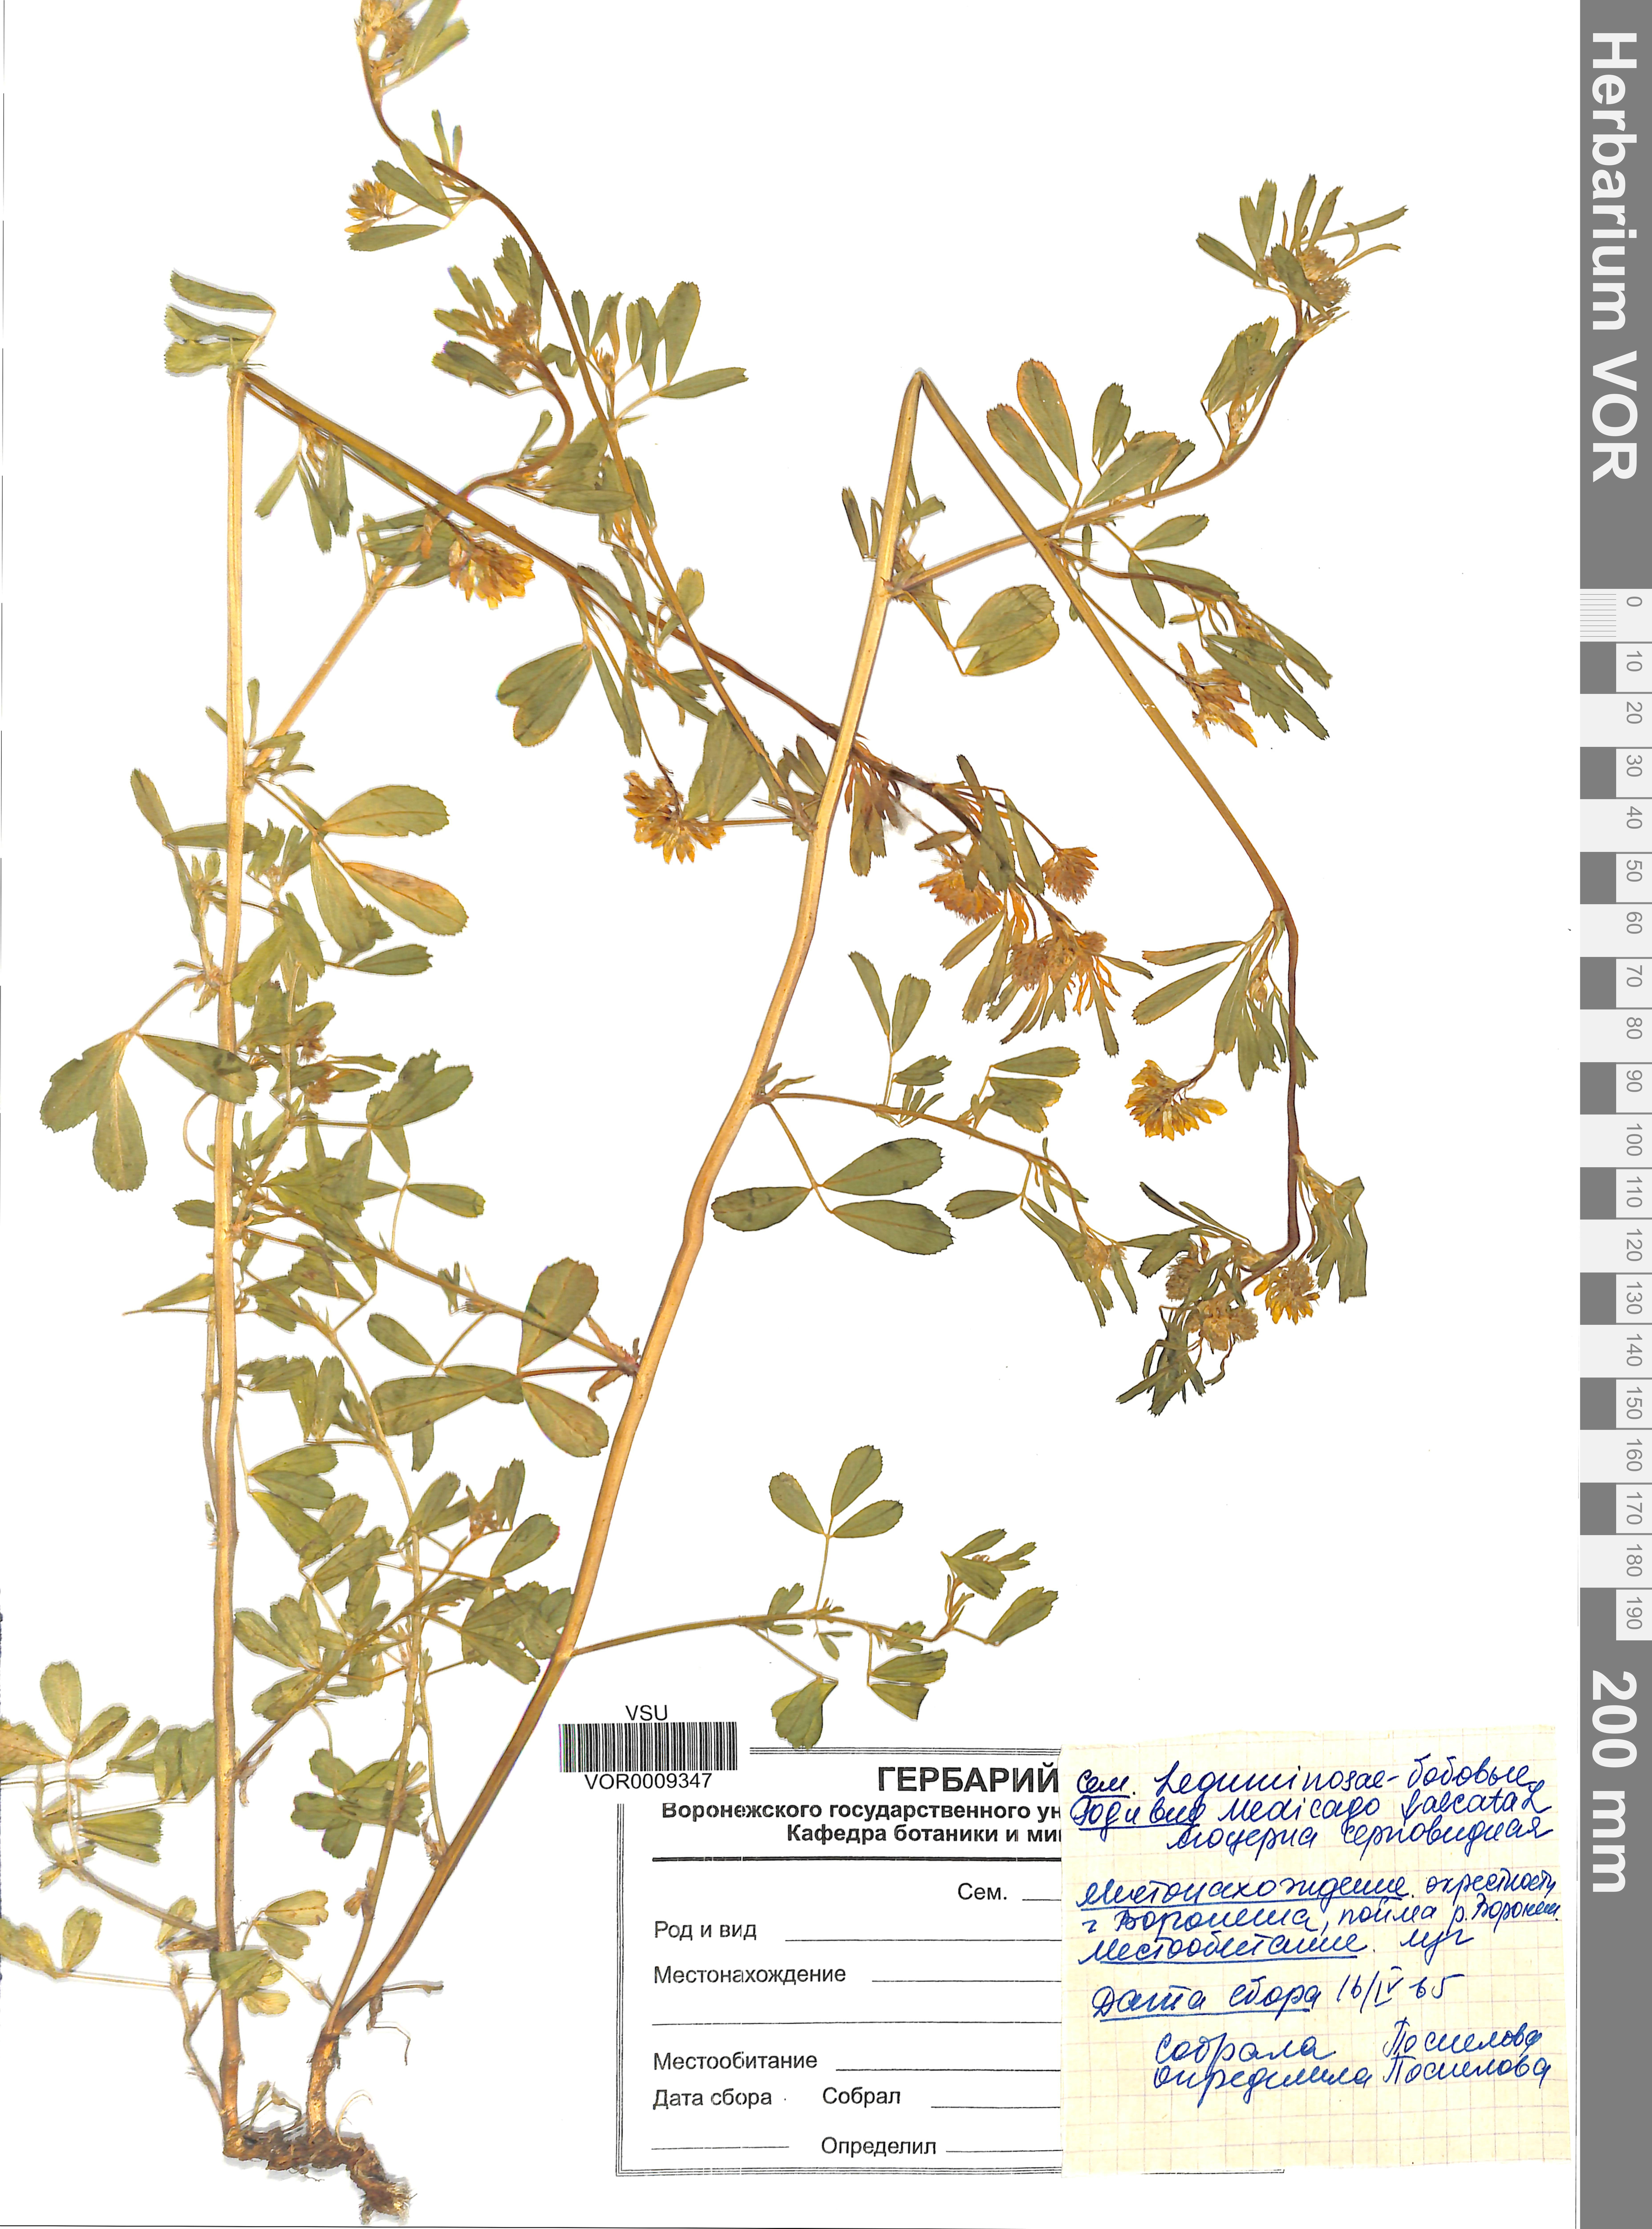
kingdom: Plantae
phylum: Tracheophyta
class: Magnoliopsida
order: Fabales
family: Fabaceae
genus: Medicago
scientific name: Medicago falcata
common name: Sickle medick
